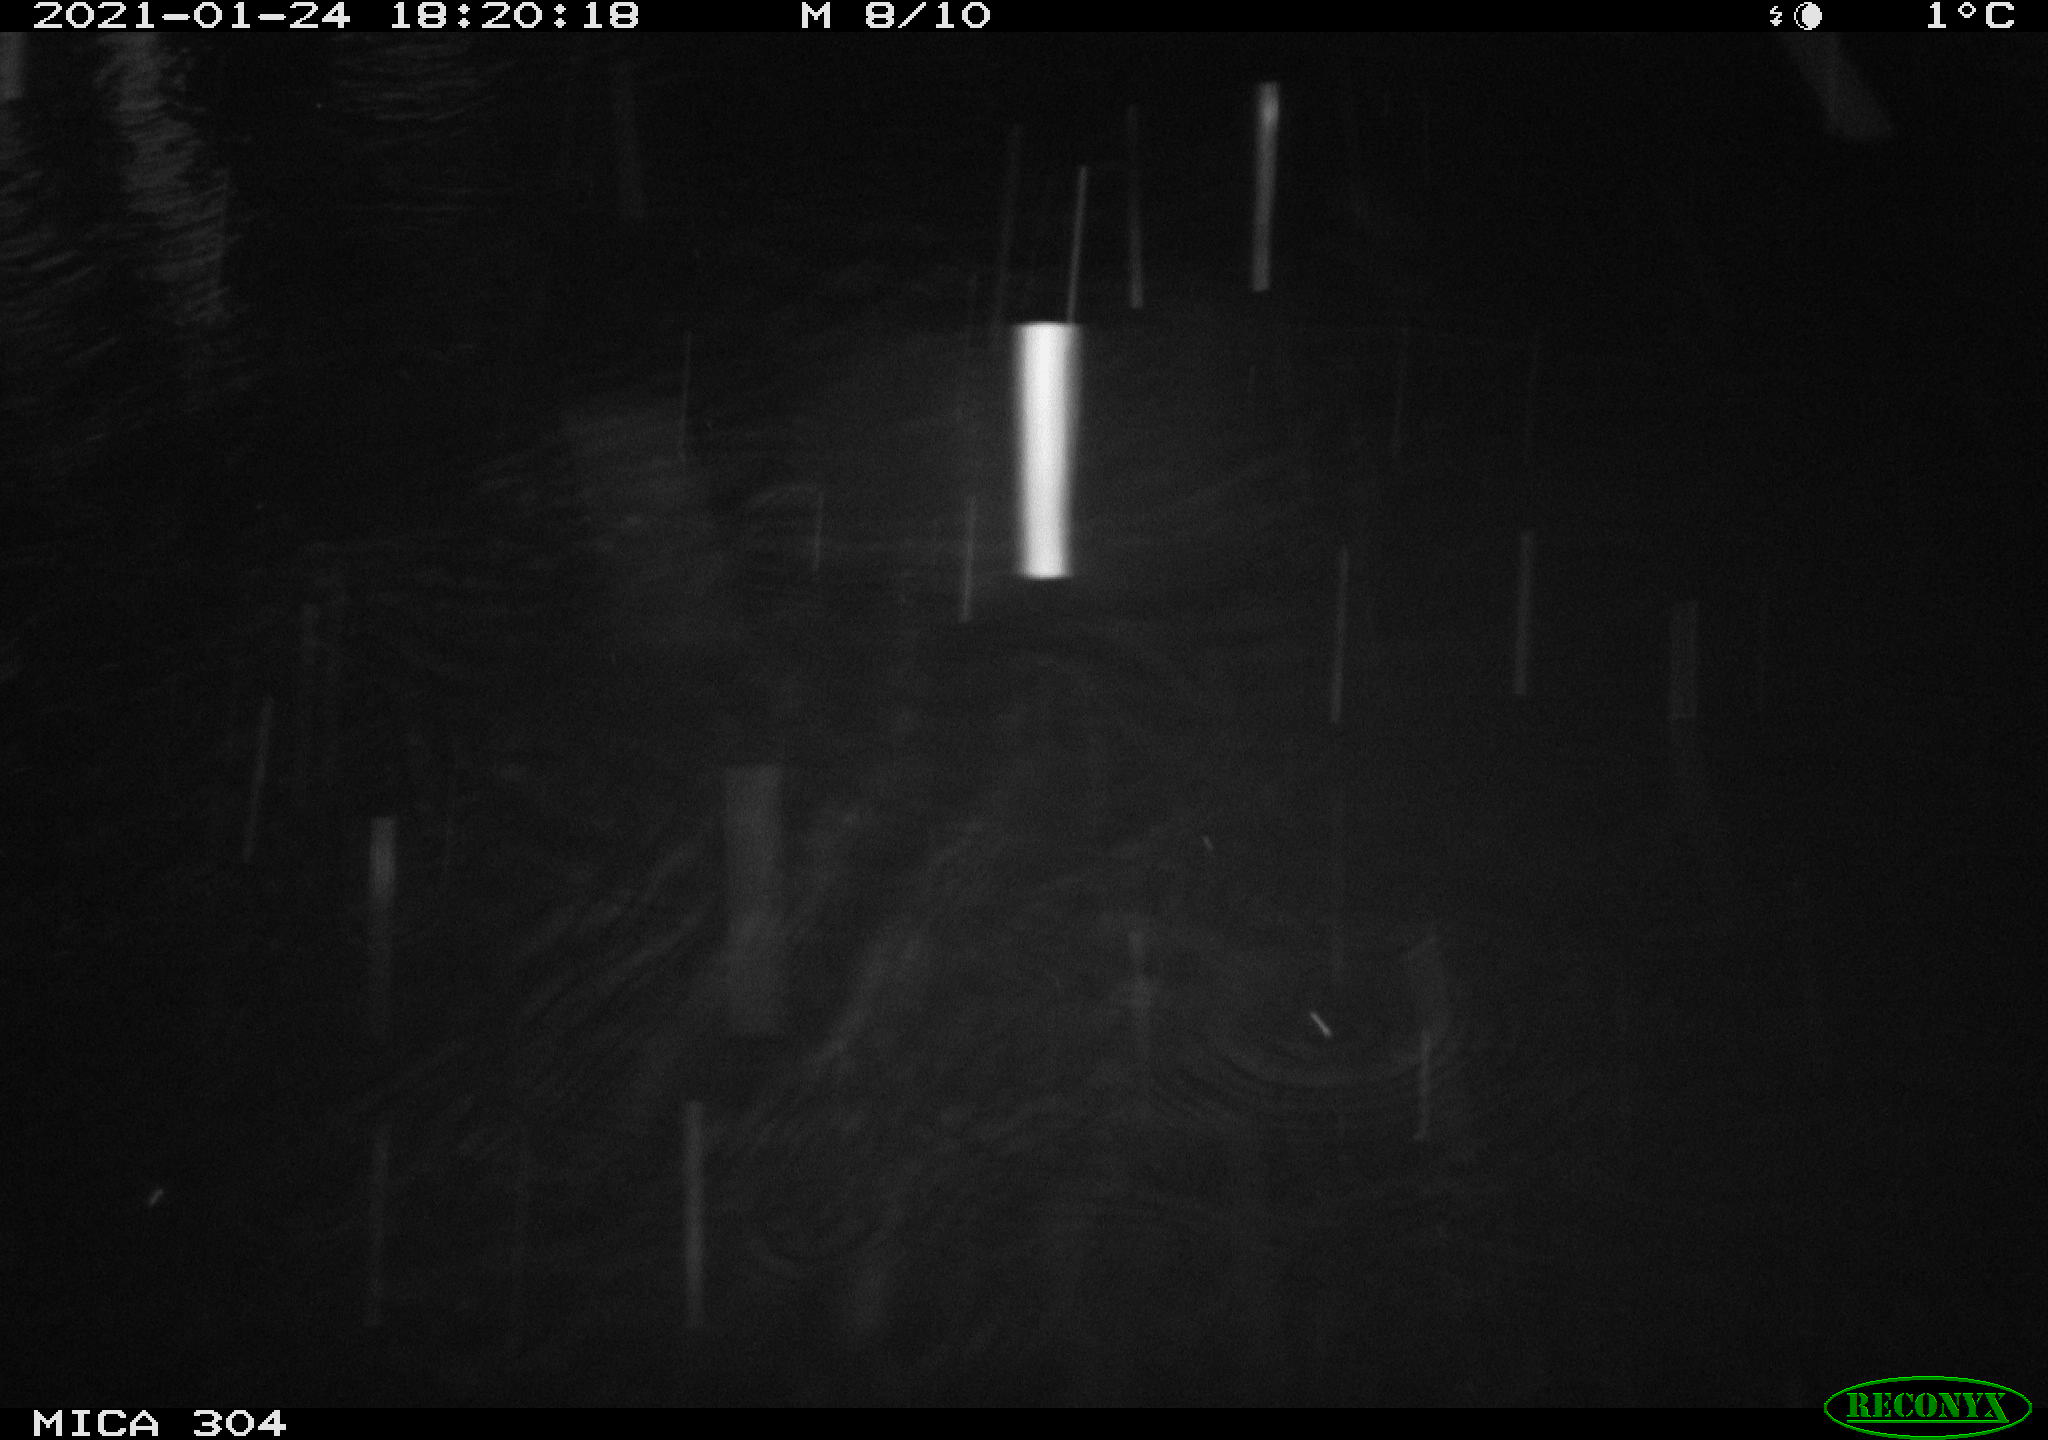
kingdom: Animalia
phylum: Chordata
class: Mammalia
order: Rodentia
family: Muridae
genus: Rattus
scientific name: Rattus norvegicus
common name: Brown rat
